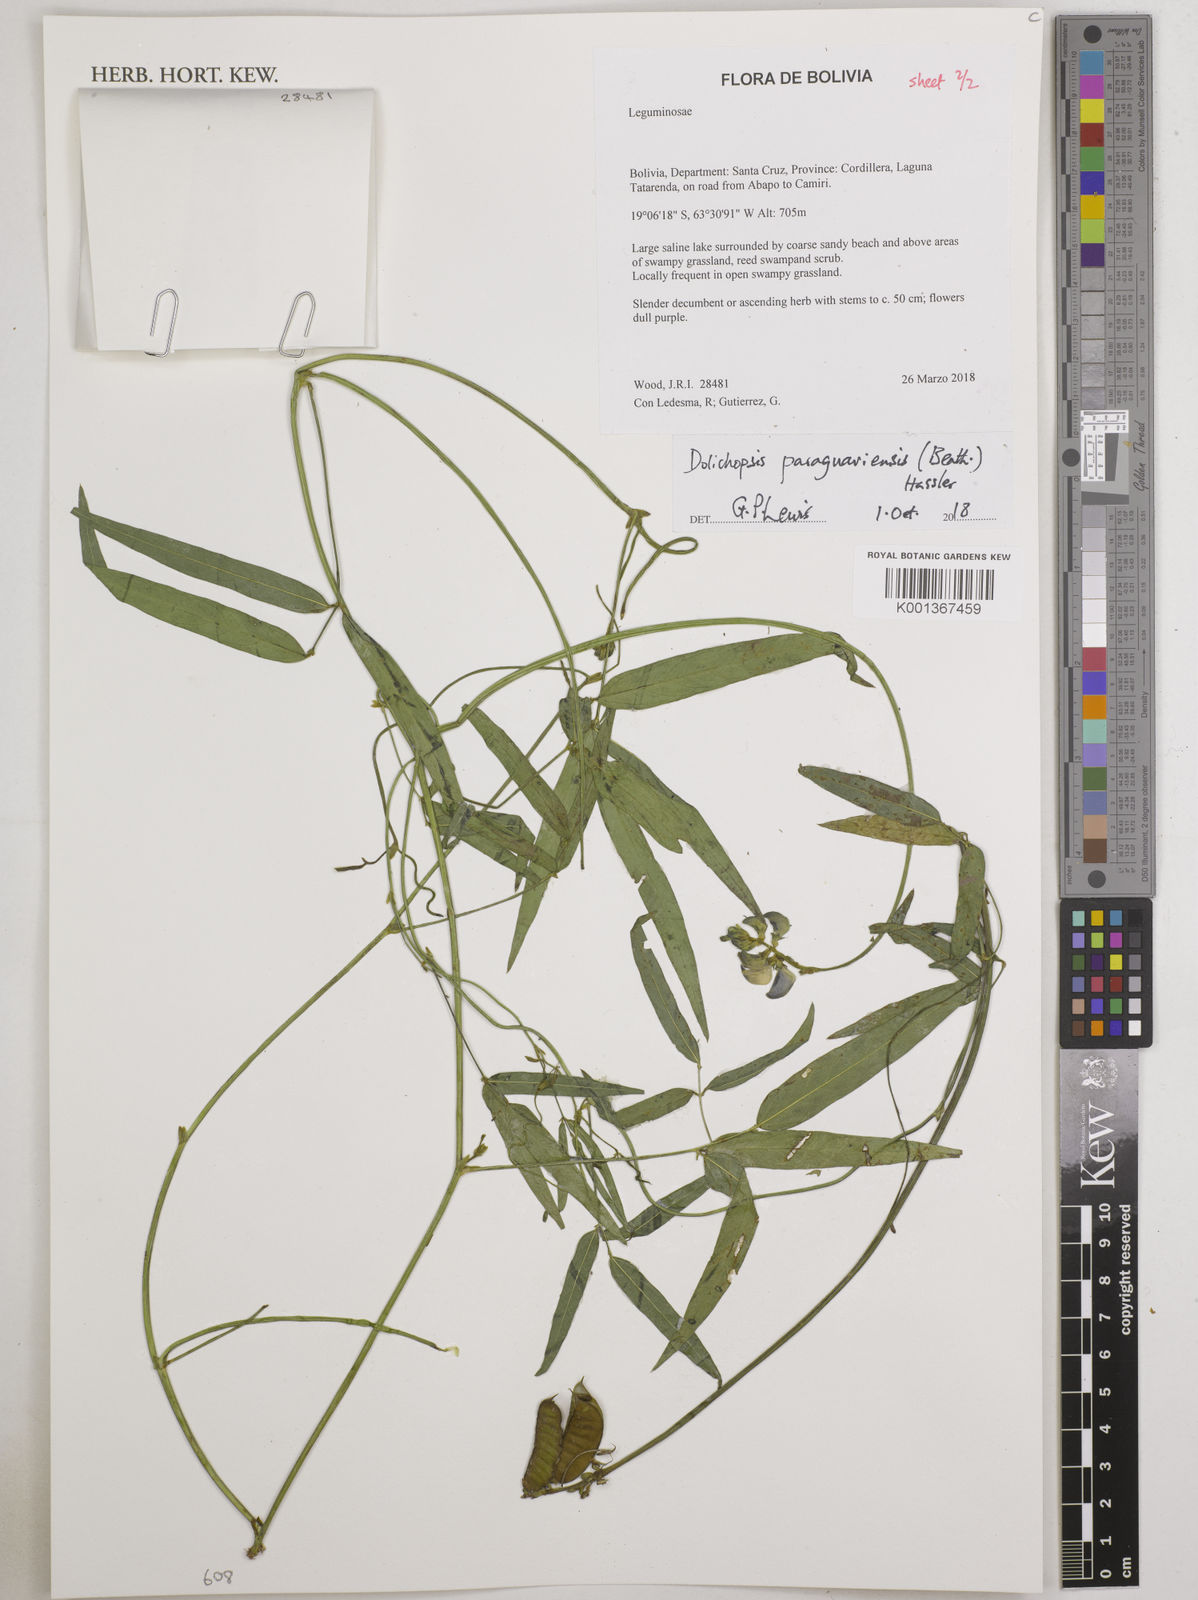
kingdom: Plantae
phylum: Tracheophyta
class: Magnoliopsida
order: Fabales
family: Fabaceae
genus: Dolichopsis
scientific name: Dolichopsis paraguariensis
